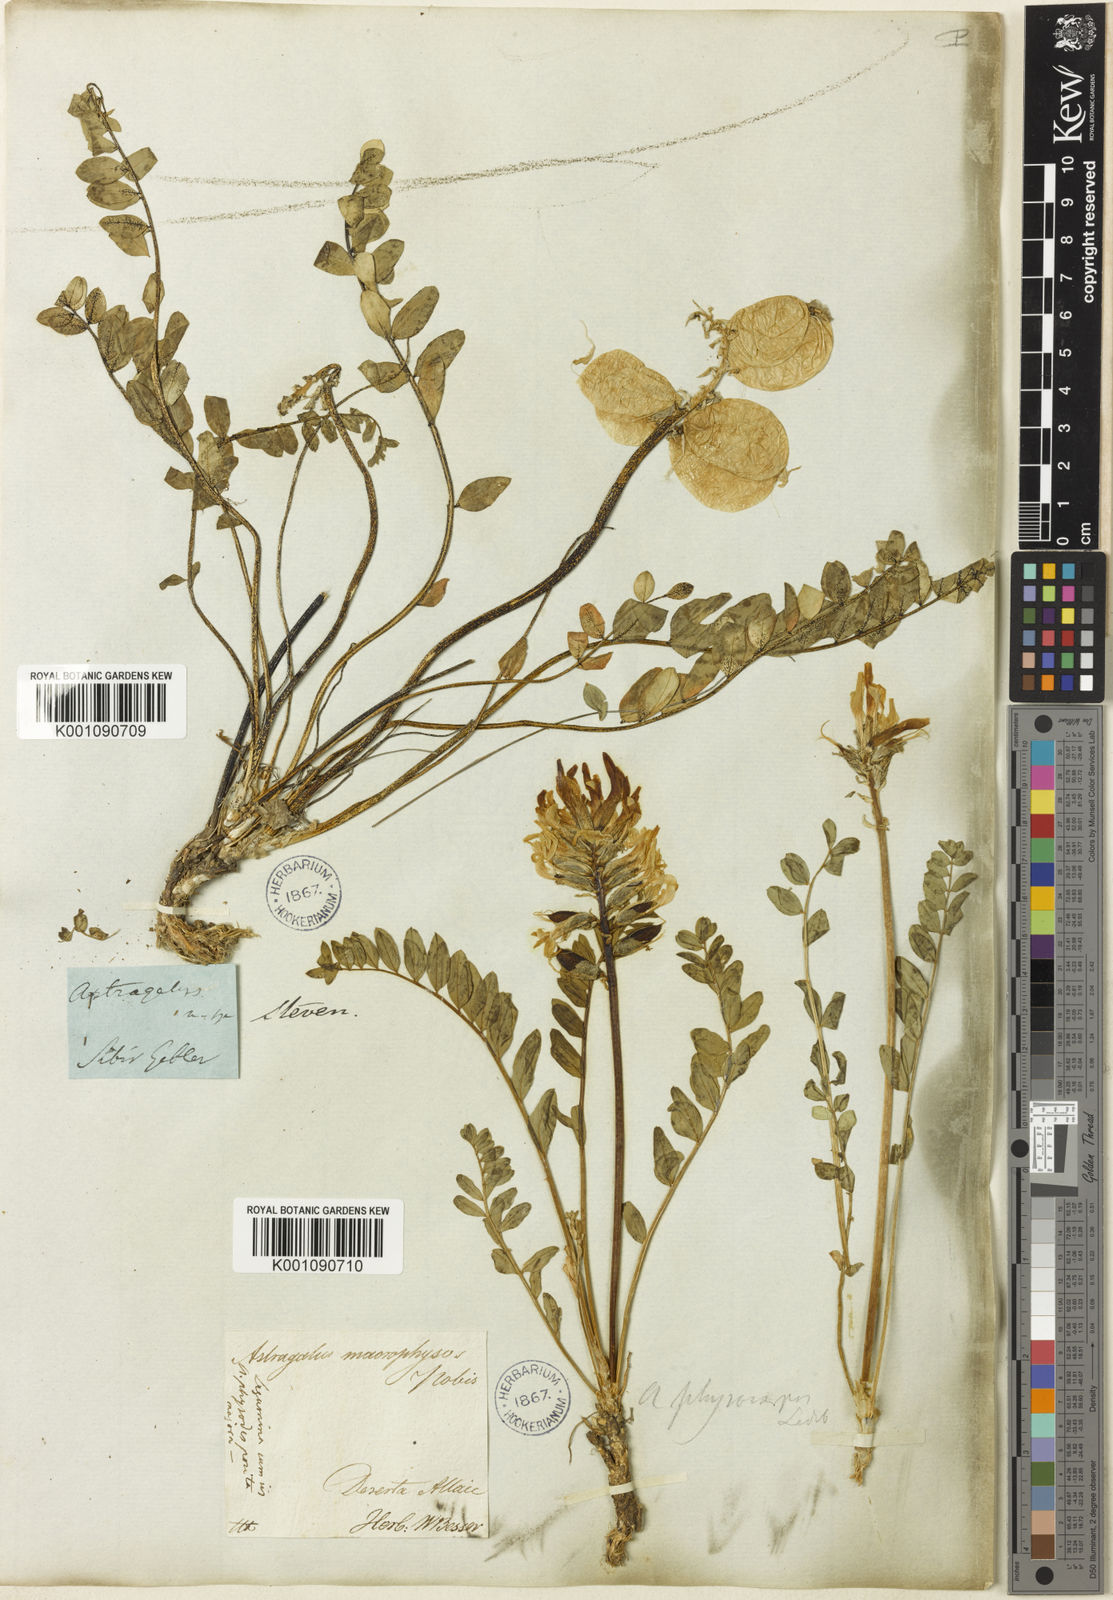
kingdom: Plantae
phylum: Tracheophyta
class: Magnoliopsida
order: Fabales
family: Fabaceae
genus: Astragalus
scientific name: Astragalus
